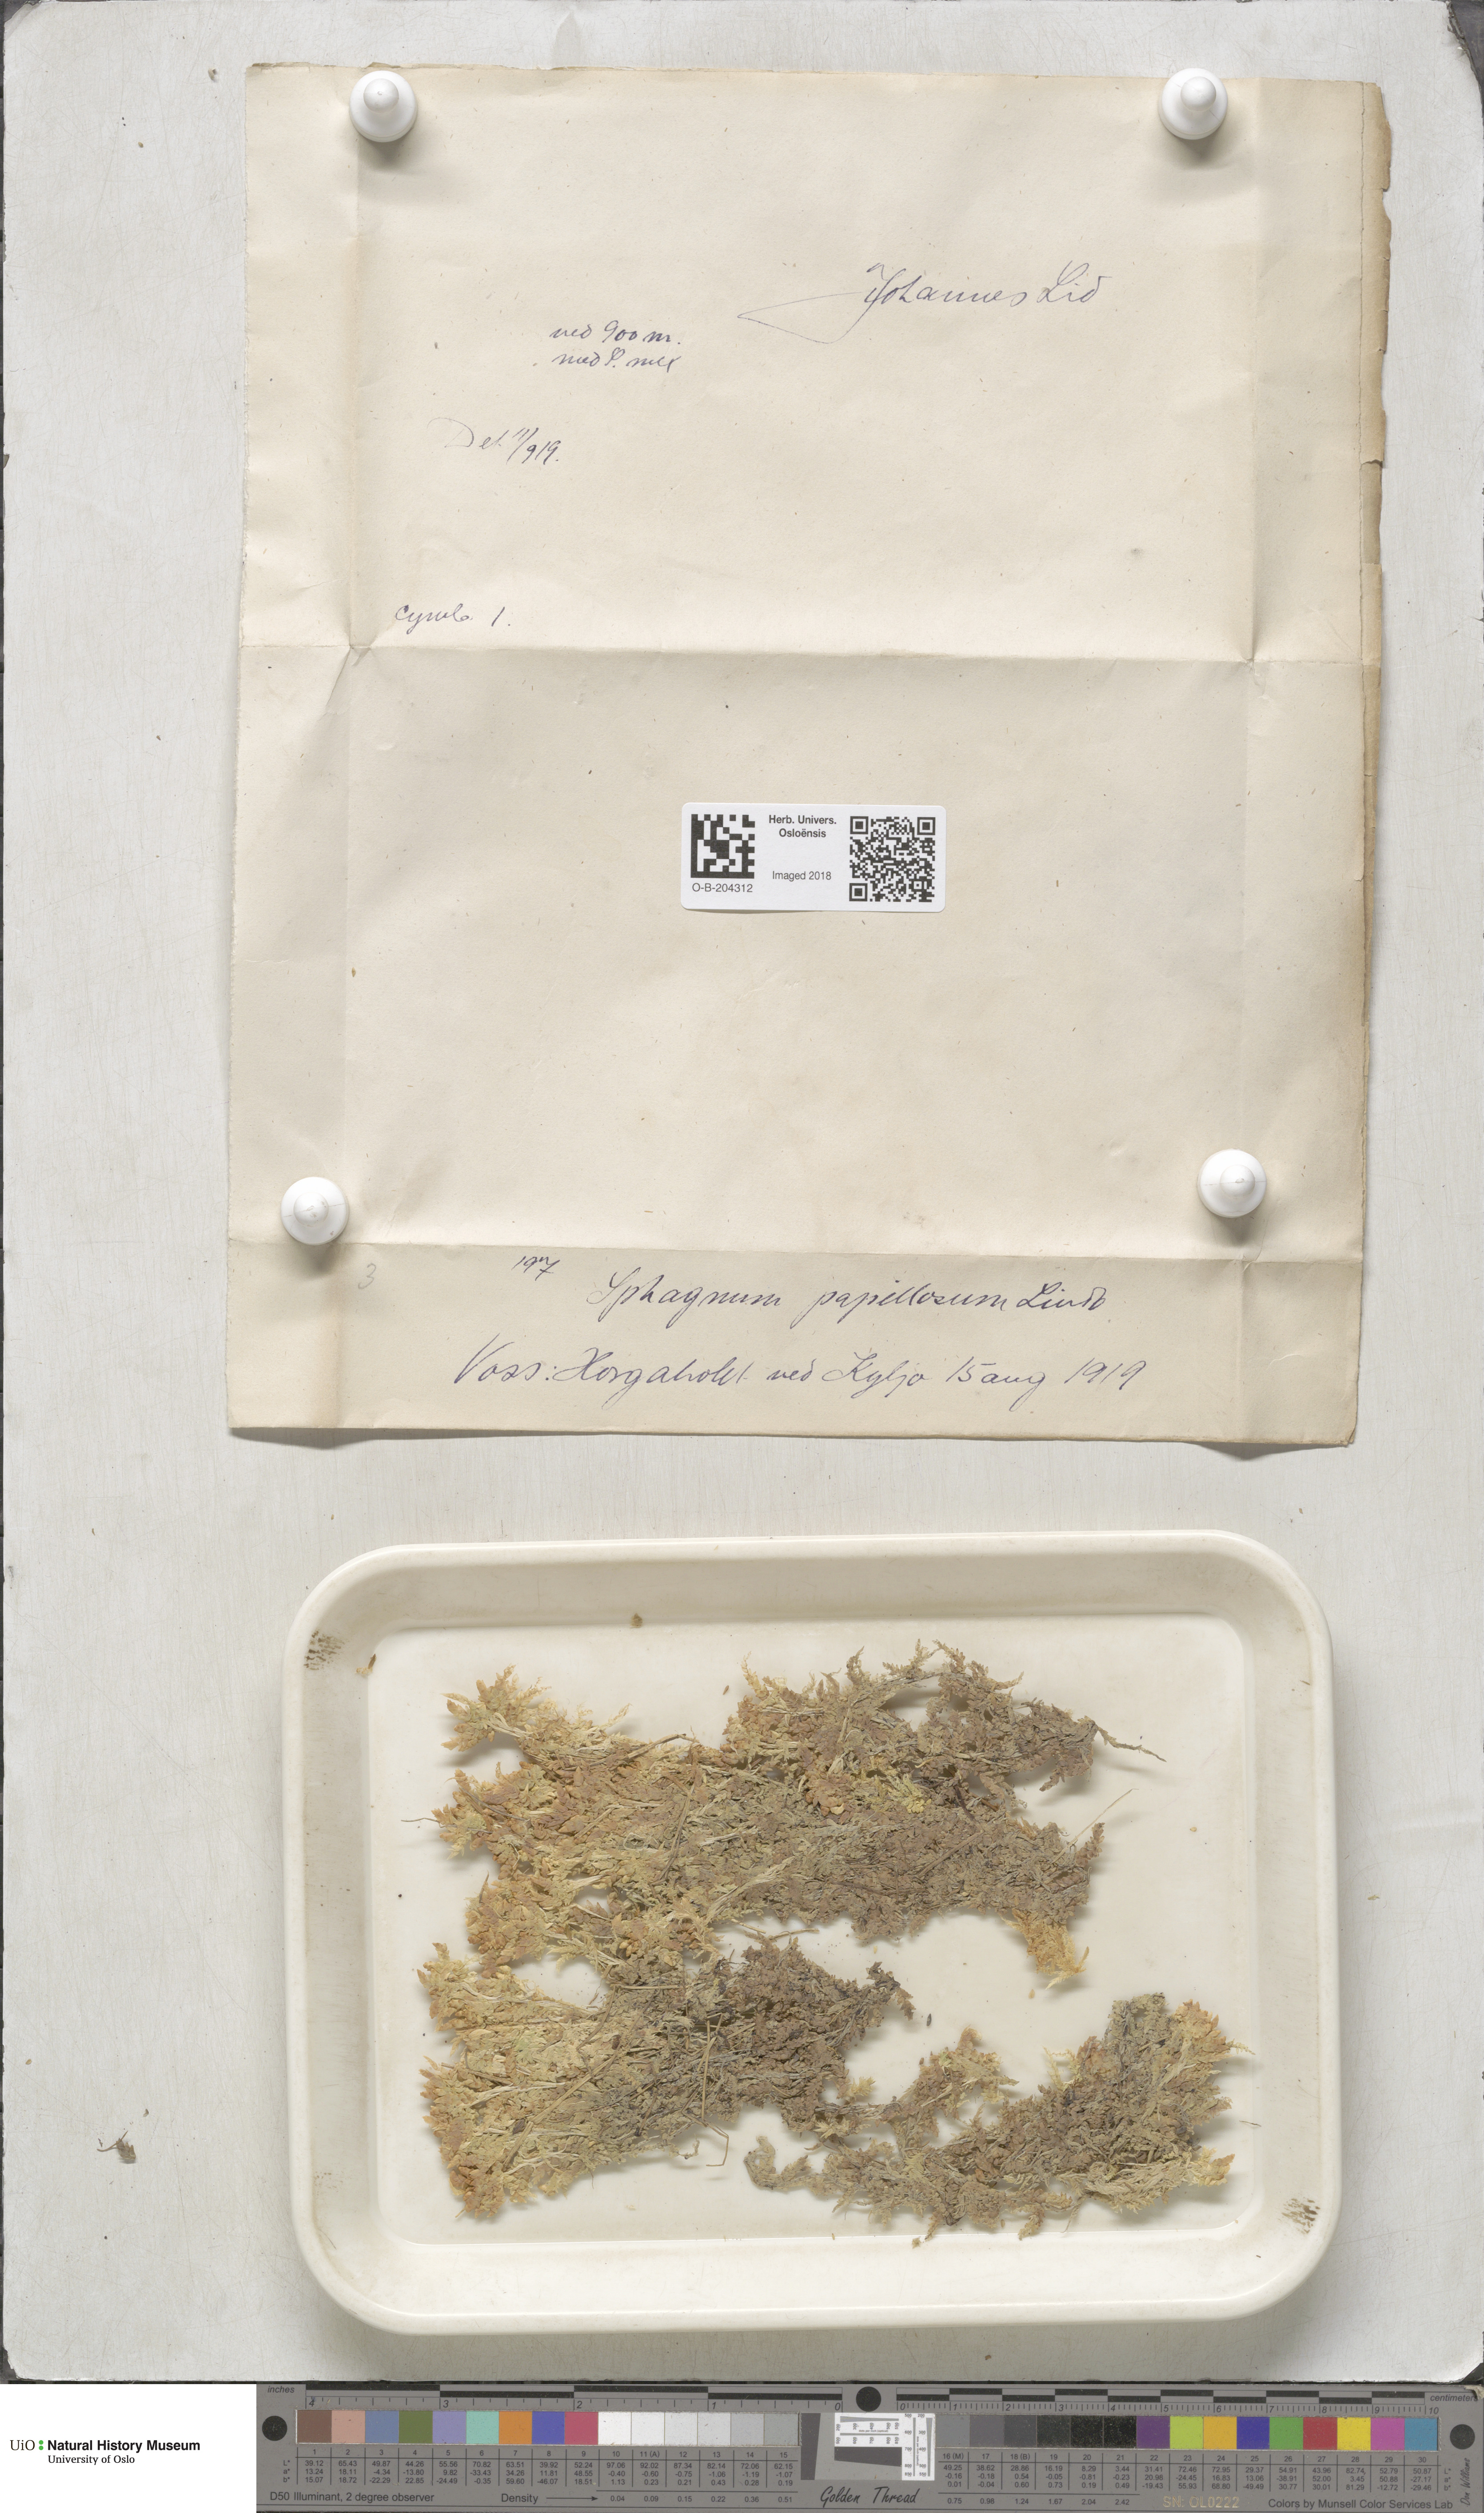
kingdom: Plantae
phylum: Bryophyta
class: Sphagnopsida
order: Sphagnales
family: Sphagnaceae
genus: Sphagnum
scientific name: Sphagnum papillosum
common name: Papillose peat moss
